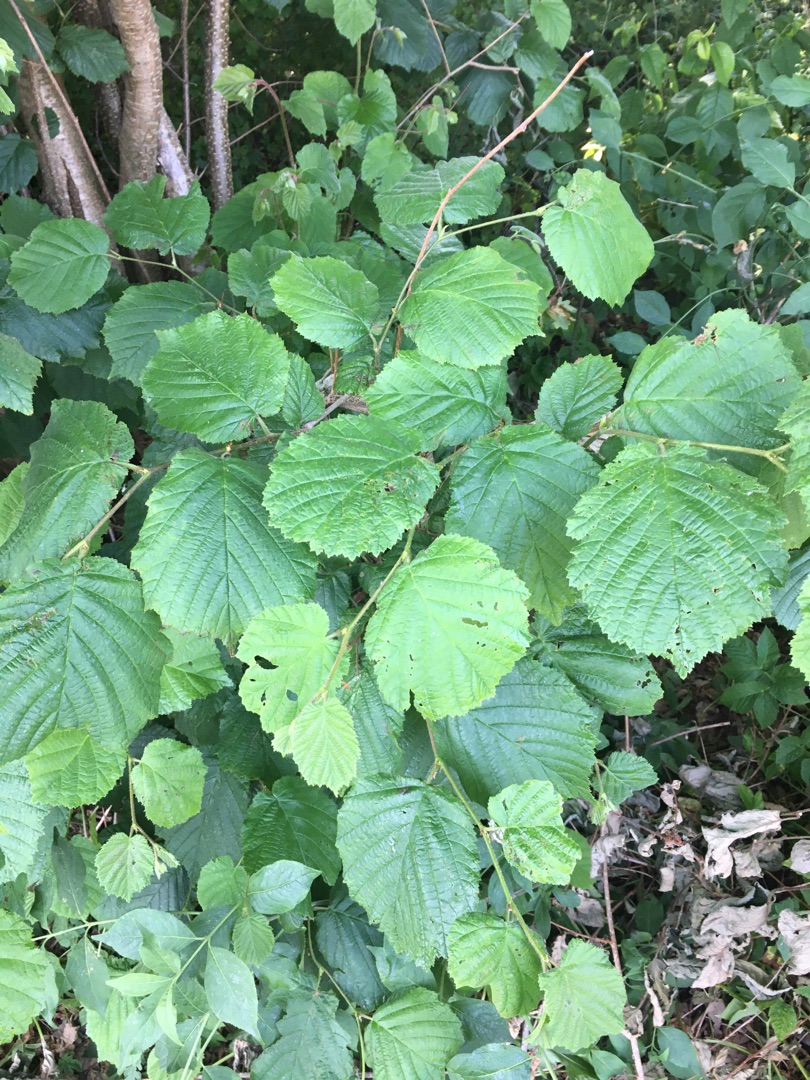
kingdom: Plantae
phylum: Tracheophyta
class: Magnoliopsida
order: Fagales
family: Betulaceae
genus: Corylus
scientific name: Corylus avellana
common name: Hassel
